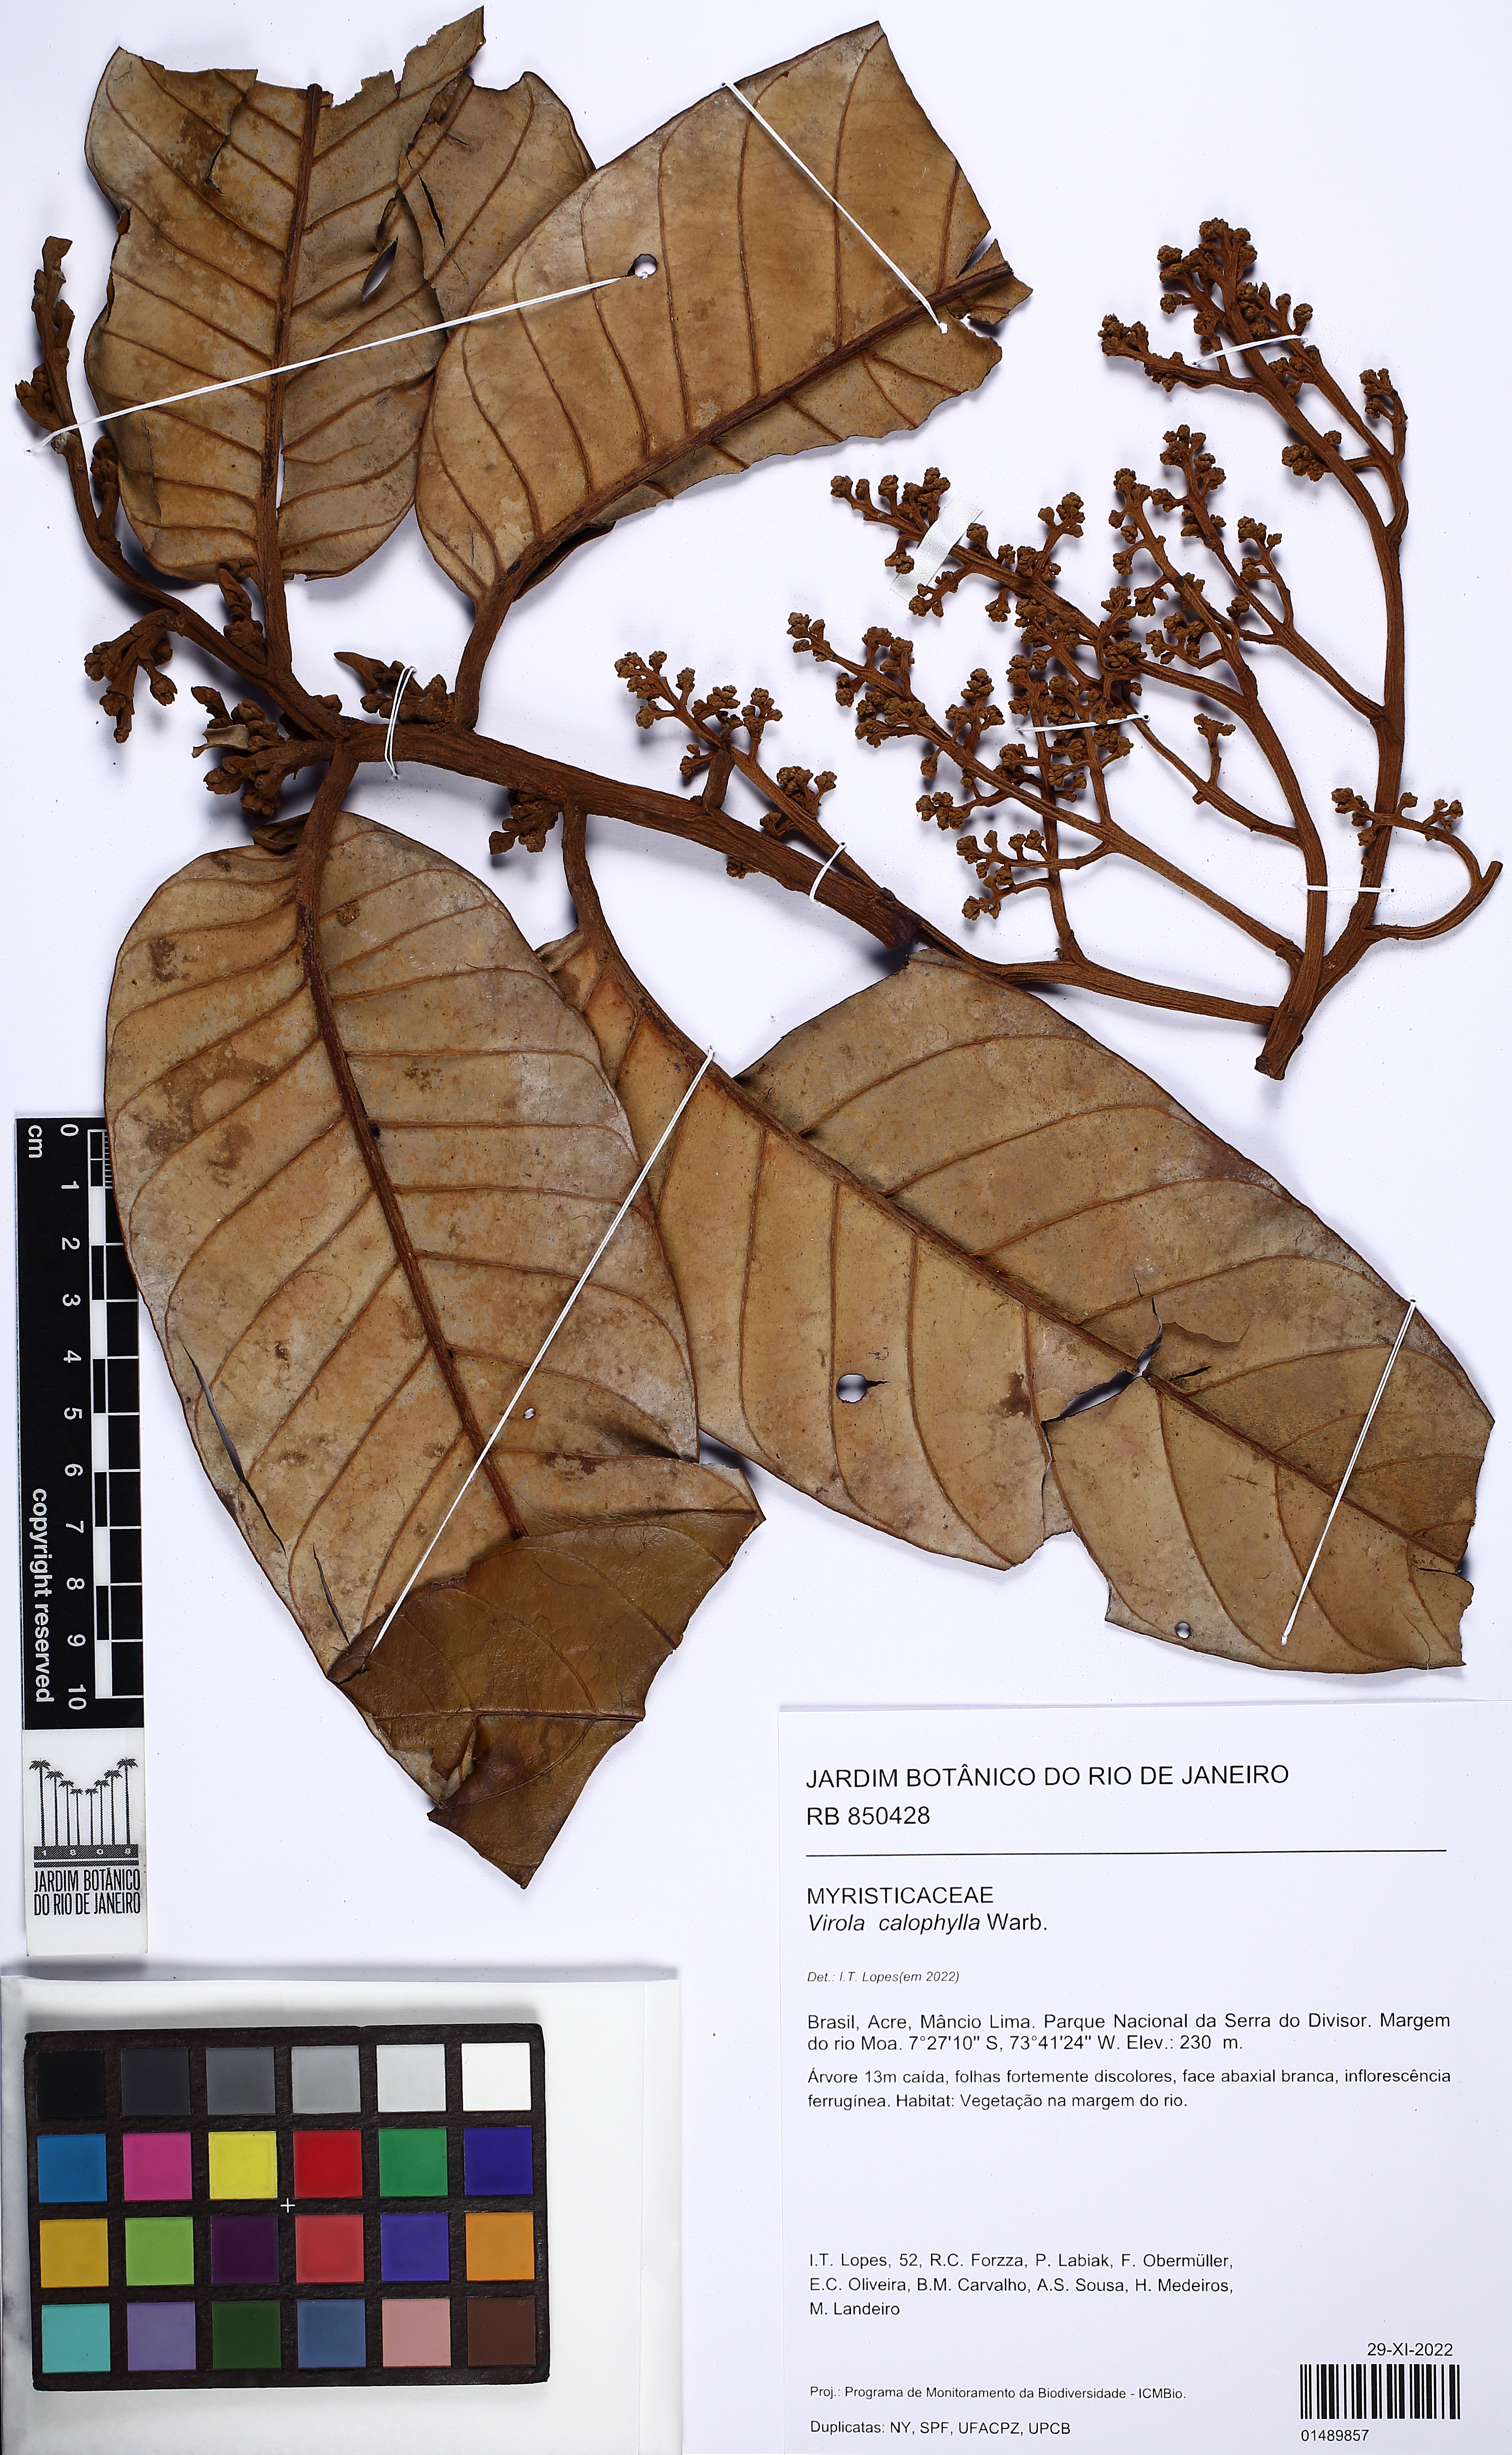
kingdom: Plantae
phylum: Tracheophyta
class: Magnoliopsida
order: Magnoliales
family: Myristicaceae
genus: Virola
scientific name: Virola calophylla
